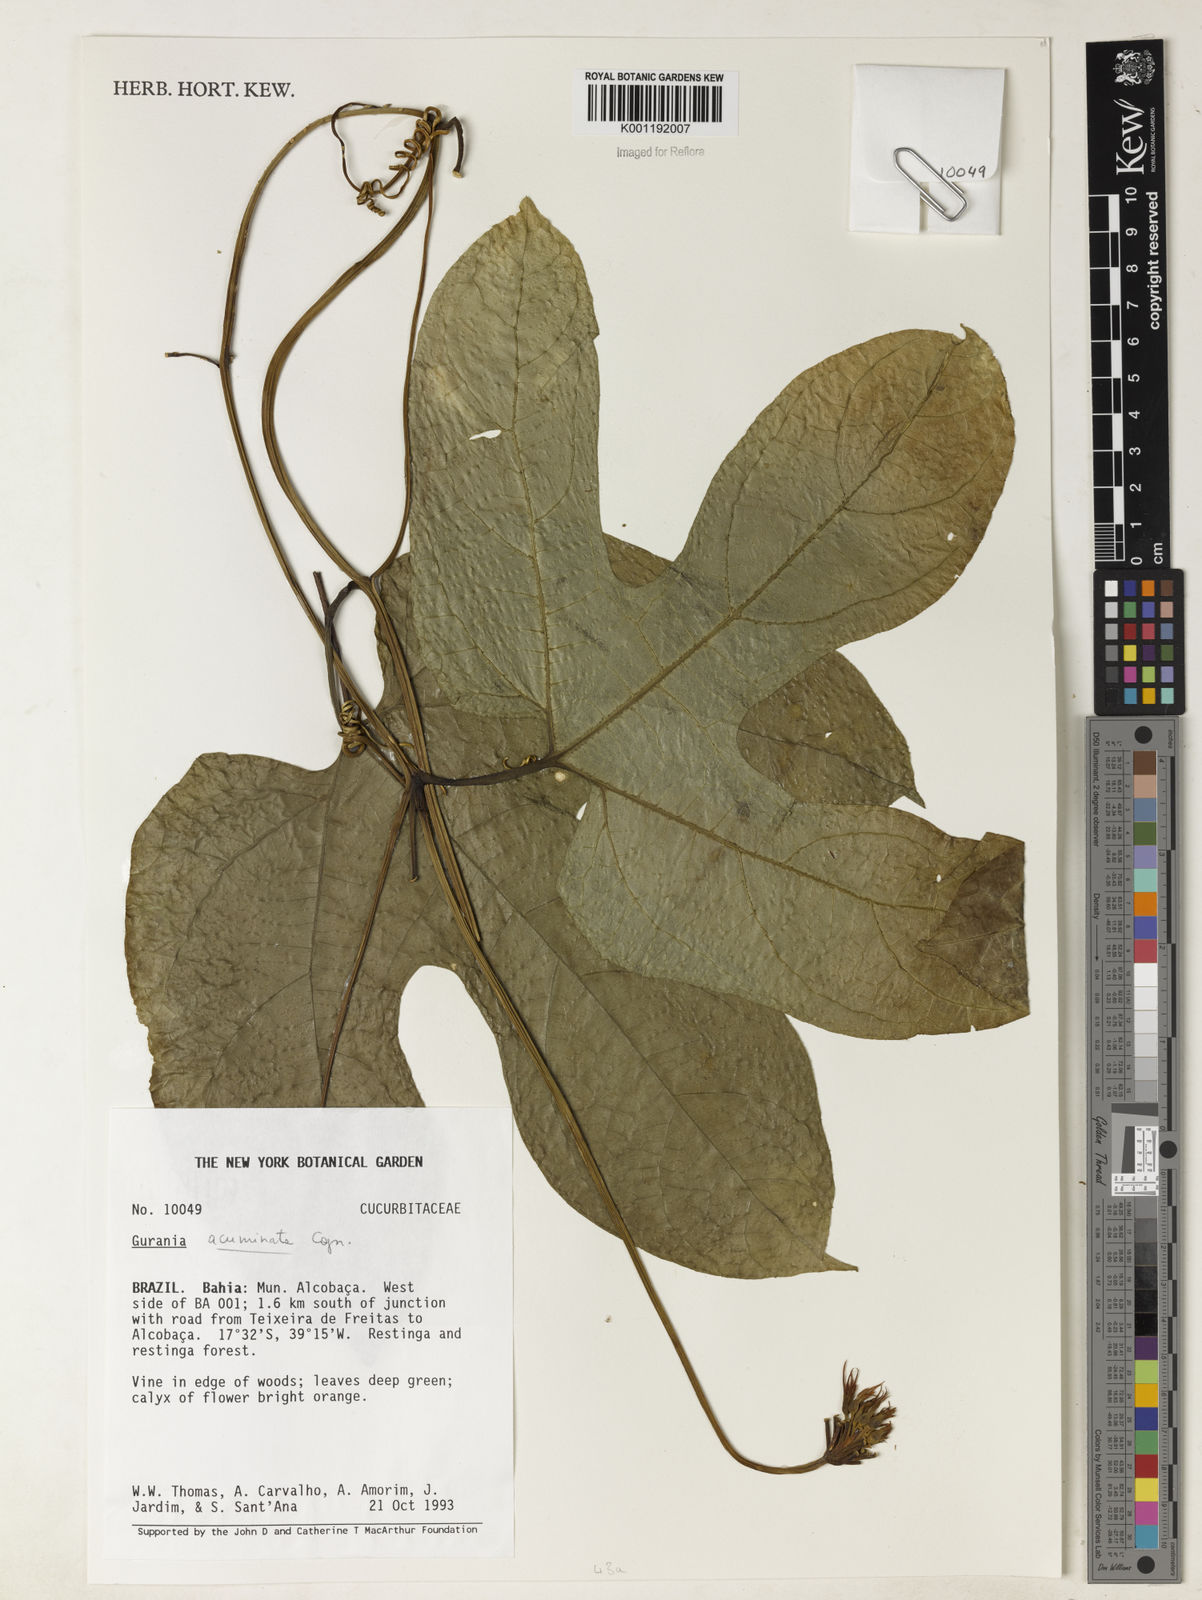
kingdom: Plantae
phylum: Tracheophyta
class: Magnoliopsida
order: Cucurbitales
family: Cucurbitaceae
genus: Gurania
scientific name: Gurania acuminata
